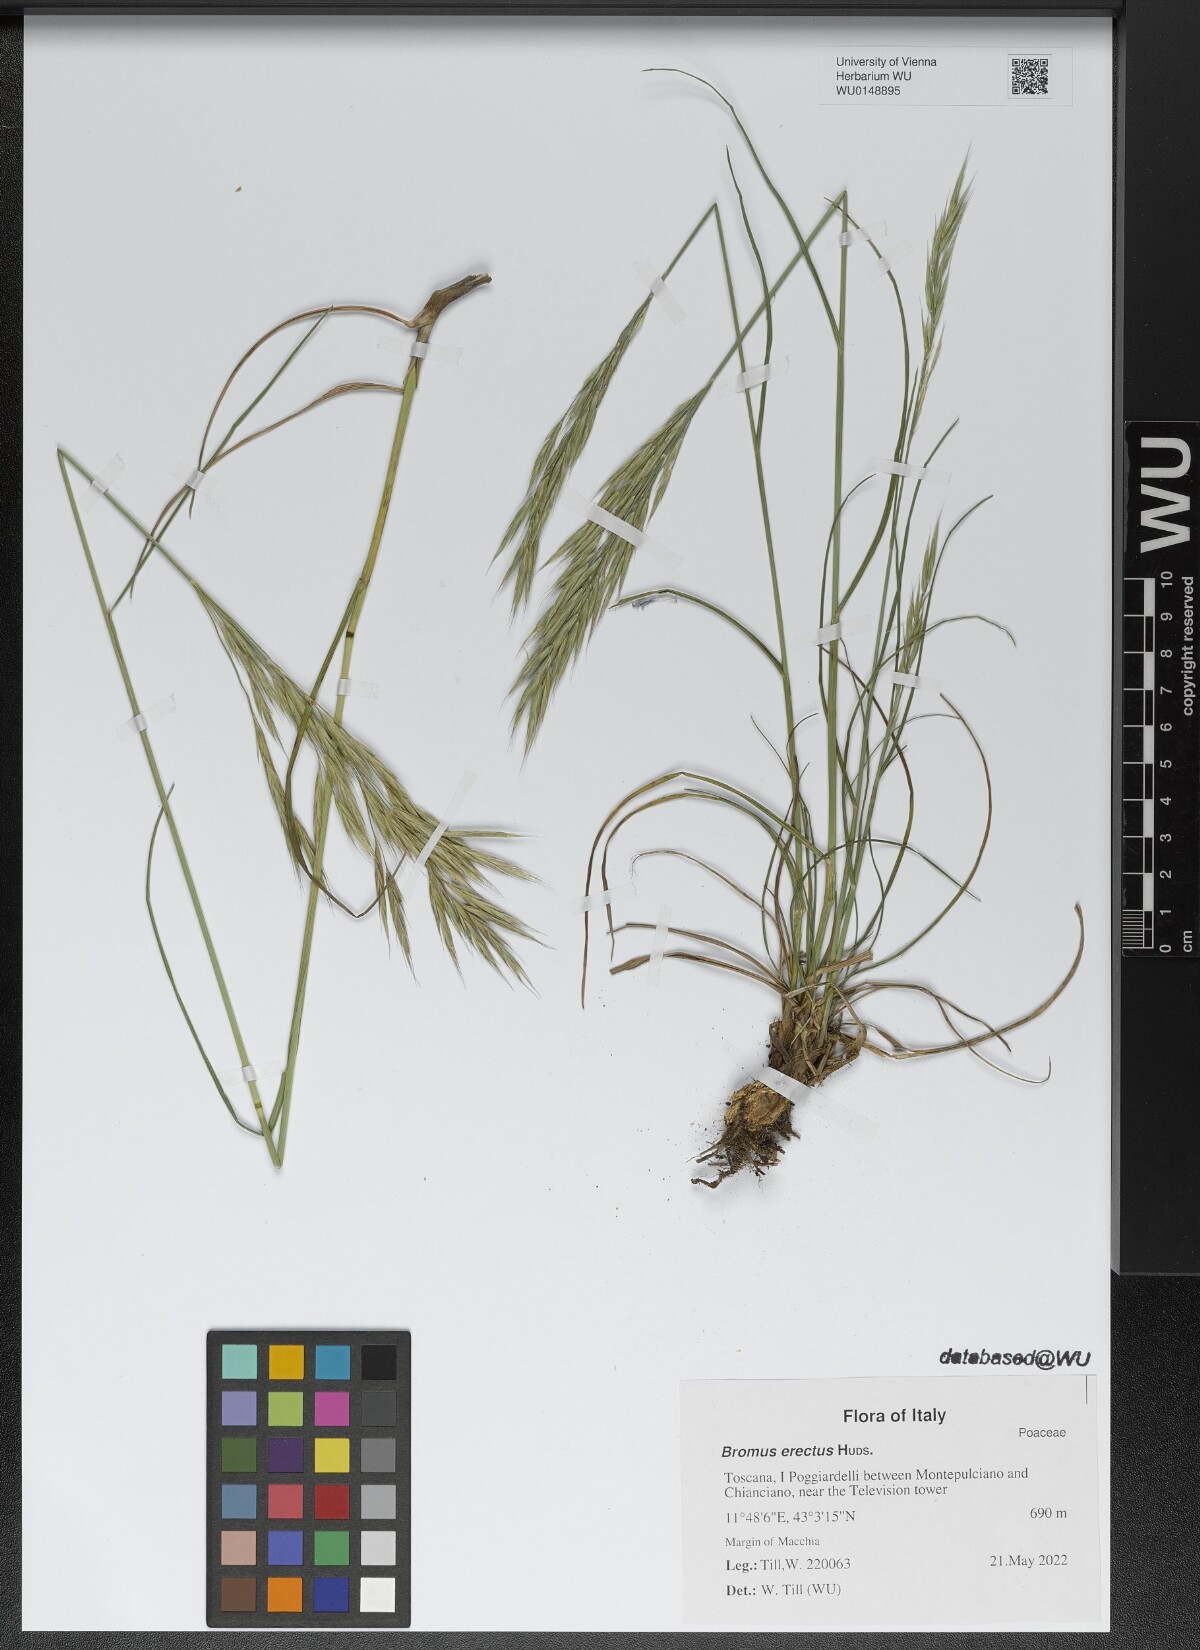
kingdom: Plantae
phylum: Tracheophyta
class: Liliopsida
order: Poales
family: Poaceae
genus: Bromus
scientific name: Bromus erectus
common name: Erect brome
